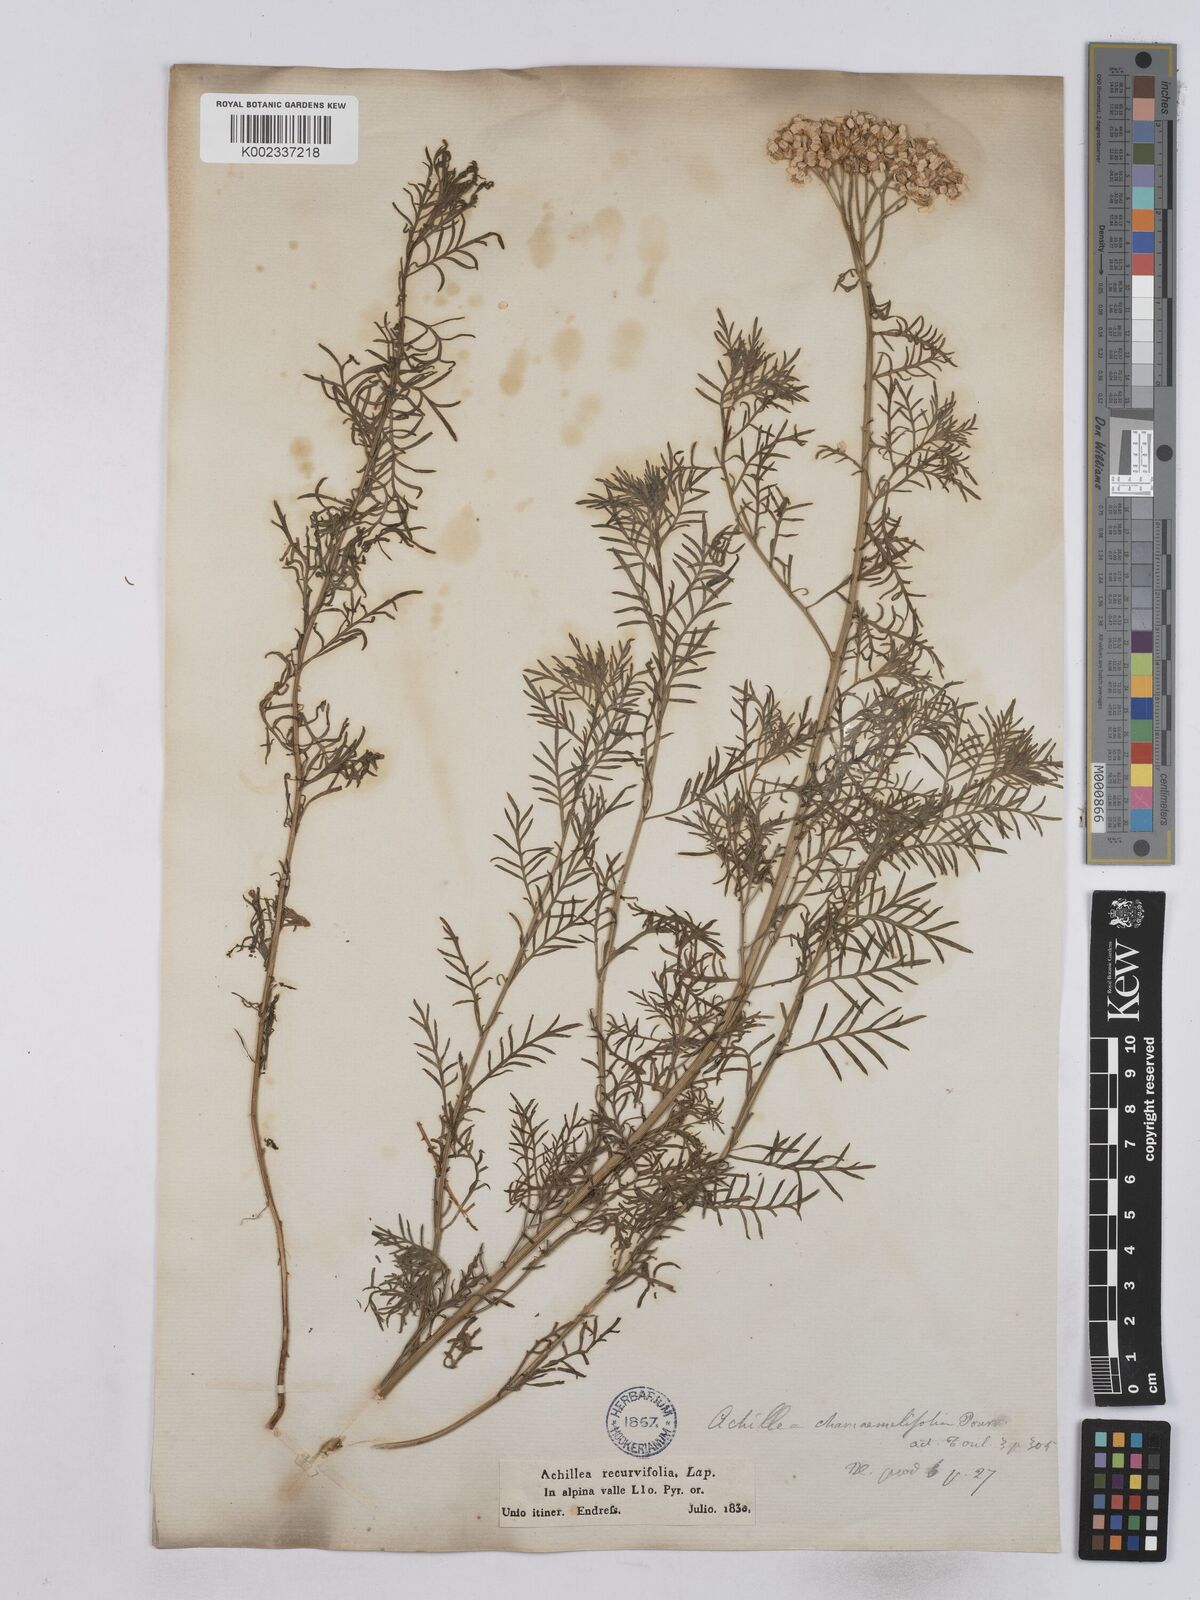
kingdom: Plantae
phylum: Tracheophyta
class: Magnoliopsida
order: Asterales
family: Asteraceae
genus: Achillea
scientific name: Achillea chamaemelifolia
